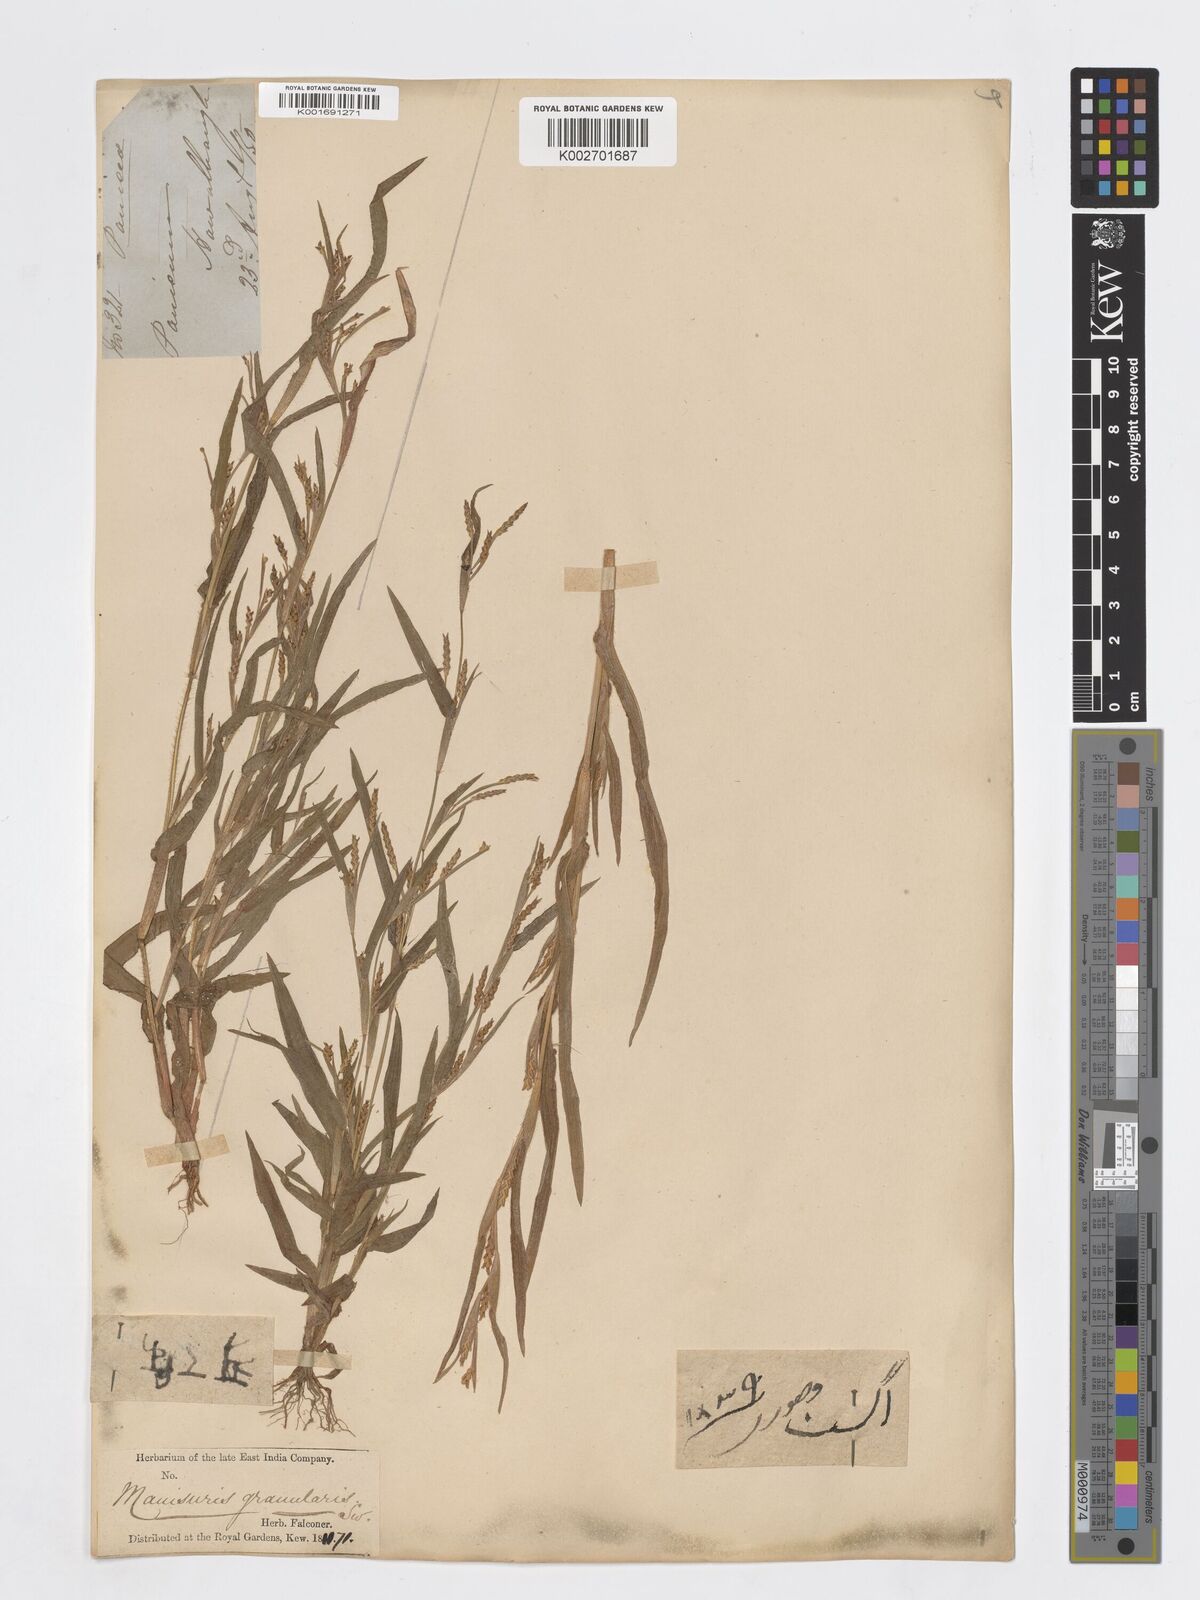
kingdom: Plantae
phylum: Tracheophyta
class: Magnoliopsida
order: Solanales
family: Solanaceae
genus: Atropa
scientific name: Atropa
